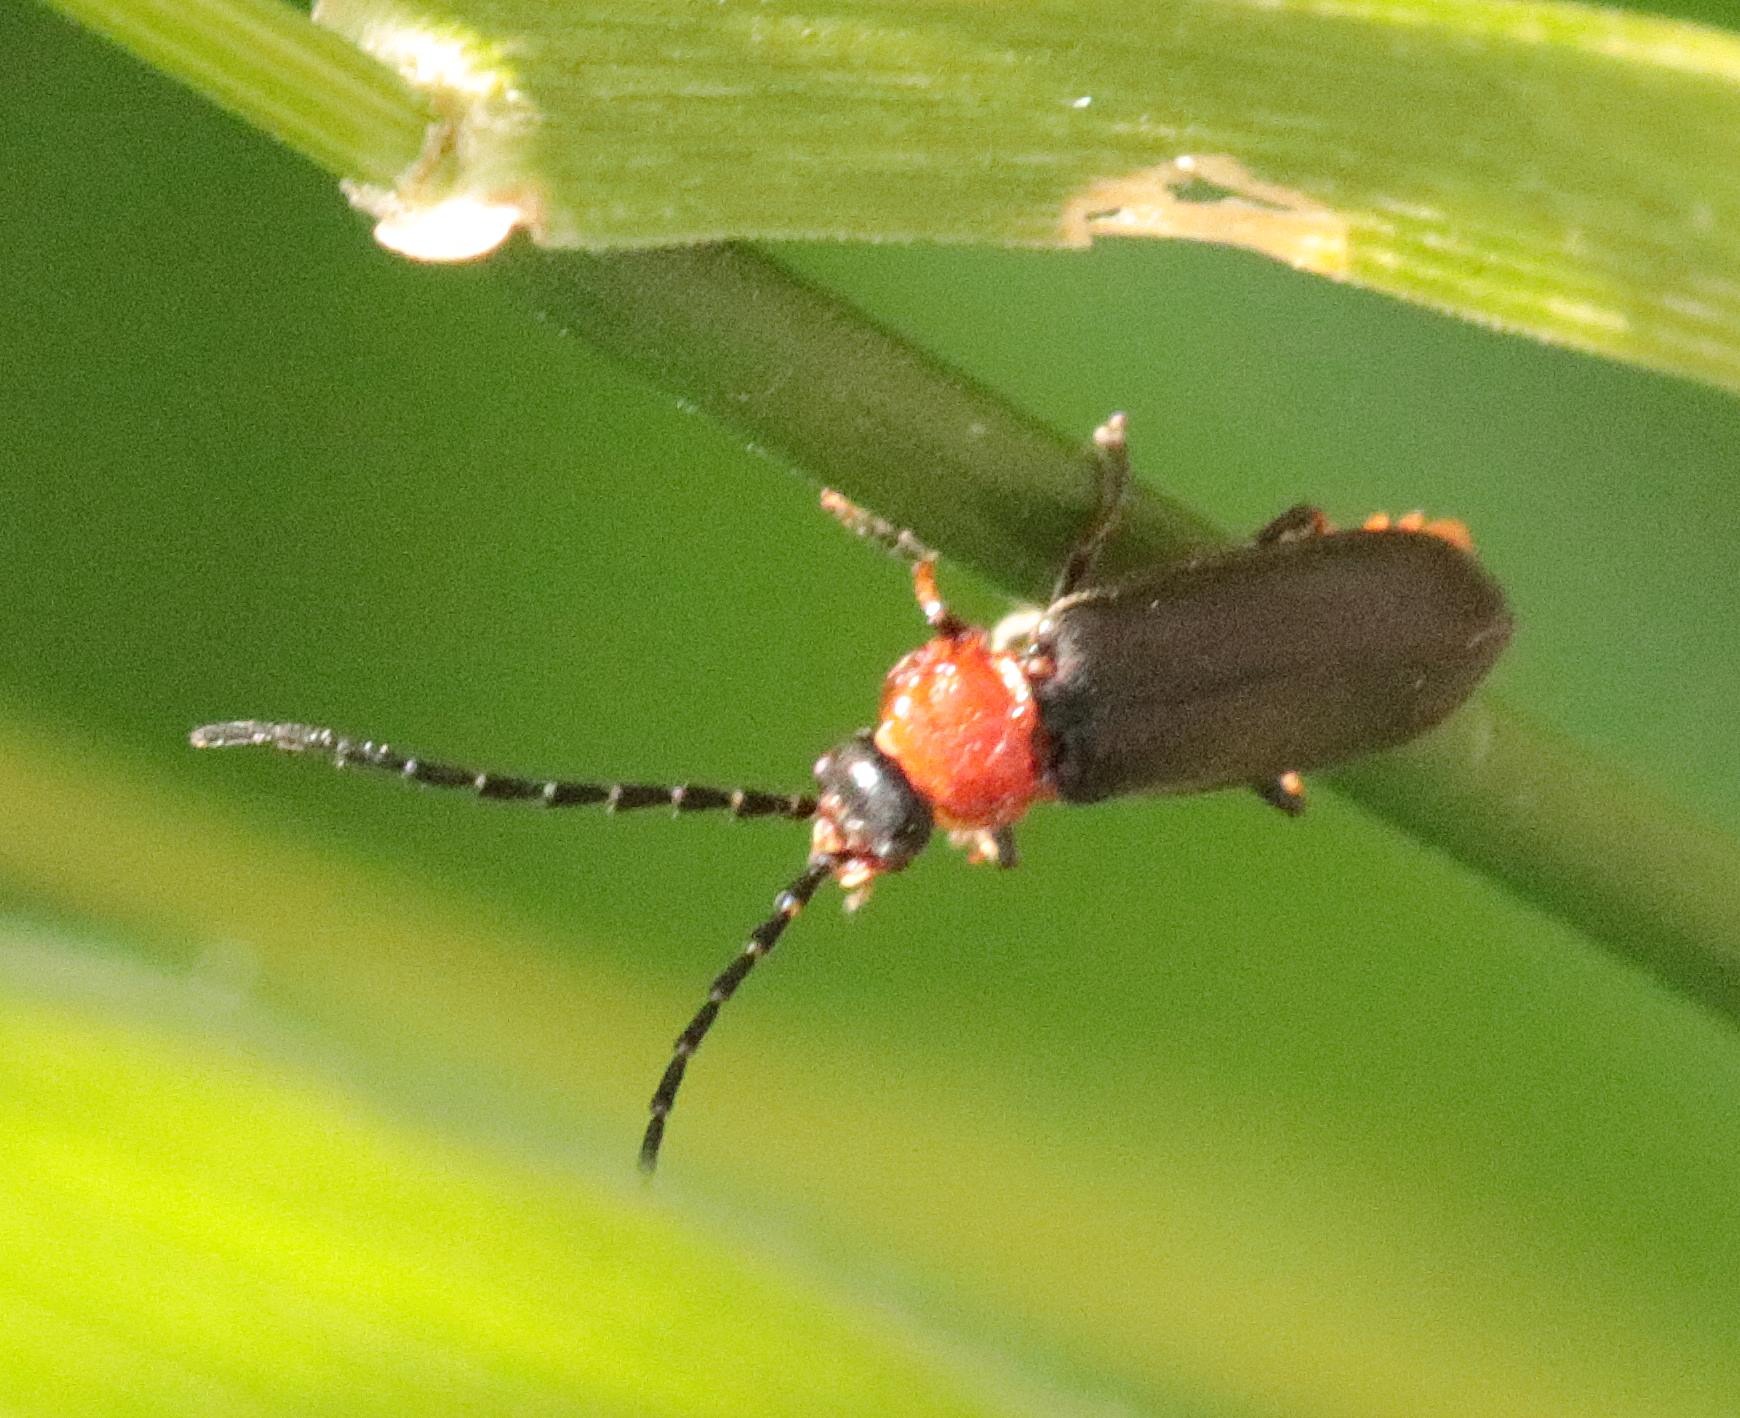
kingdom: Animalia
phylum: Arthropoda
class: Insecta
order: Coleoptera
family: Cantharidae
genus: Crudosilis
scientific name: Crudosilis ruficollis
